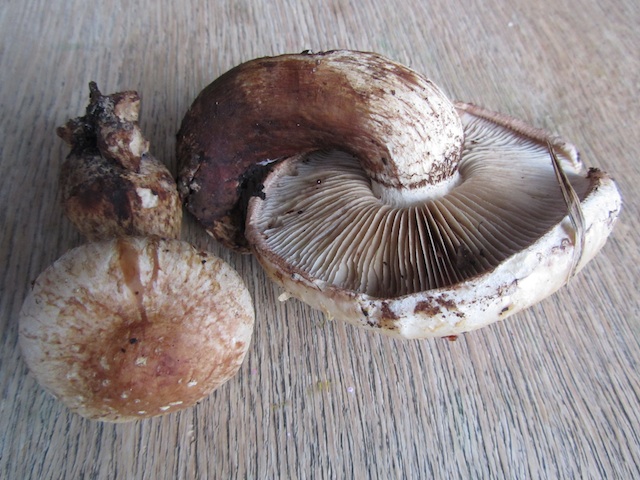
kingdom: Fungi
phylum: Basidiomycota
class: Agaricomycetes
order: Agaricales
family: Strophariaceae
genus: Pholiota
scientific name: Pholiota populnea
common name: poppel-kæmpeskælhat
